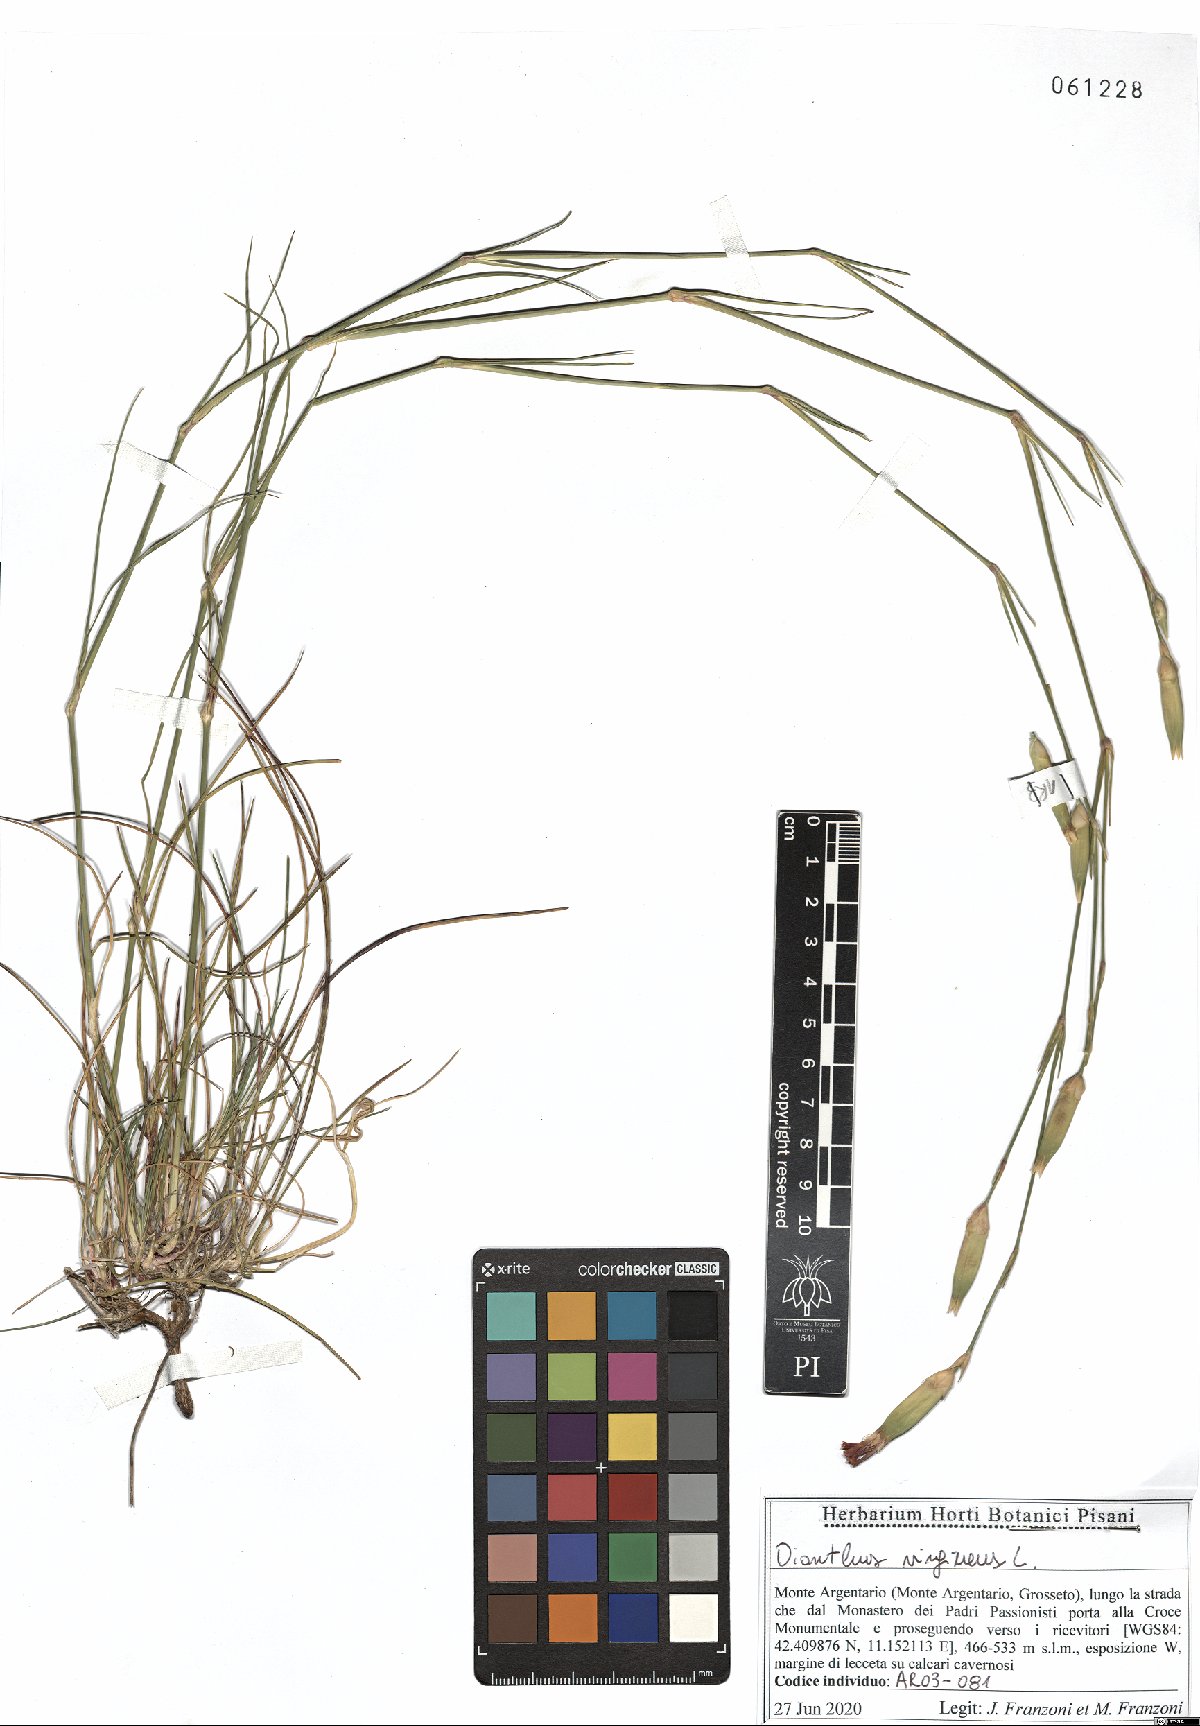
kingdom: Plantae
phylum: Tracheophyta
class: Magnoliopsida
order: Caryophyllales
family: Caryophyllaceae
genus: Dianthus
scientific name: Dianthus virgineus
